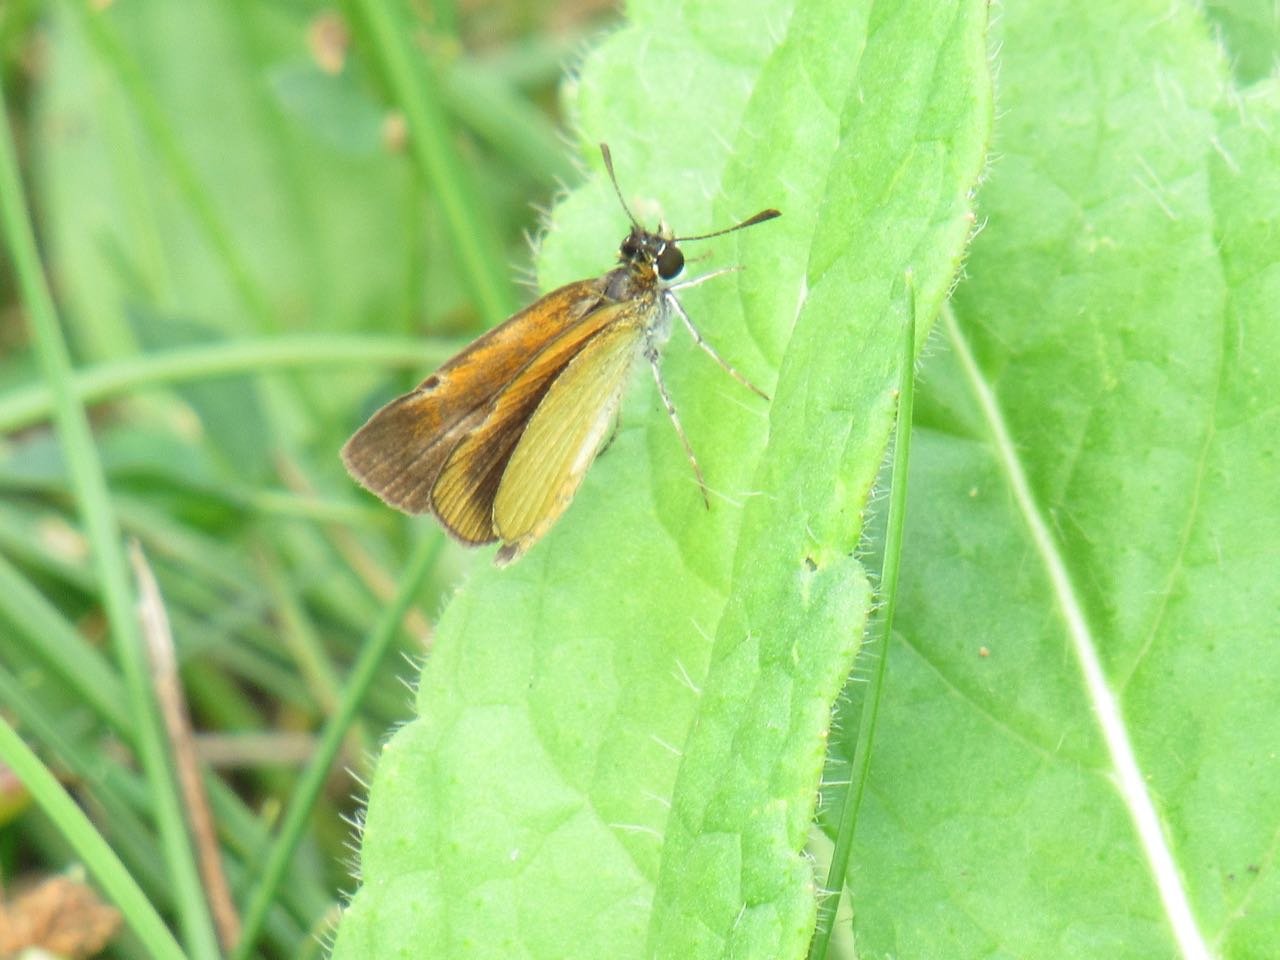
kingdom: Animalia
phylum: Arthropoda
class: Insecta
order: Lepidoptera
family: Hesperiidae
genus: Ancyloxypha
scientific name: Ancyloxypha numitor
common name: Least Skipper
